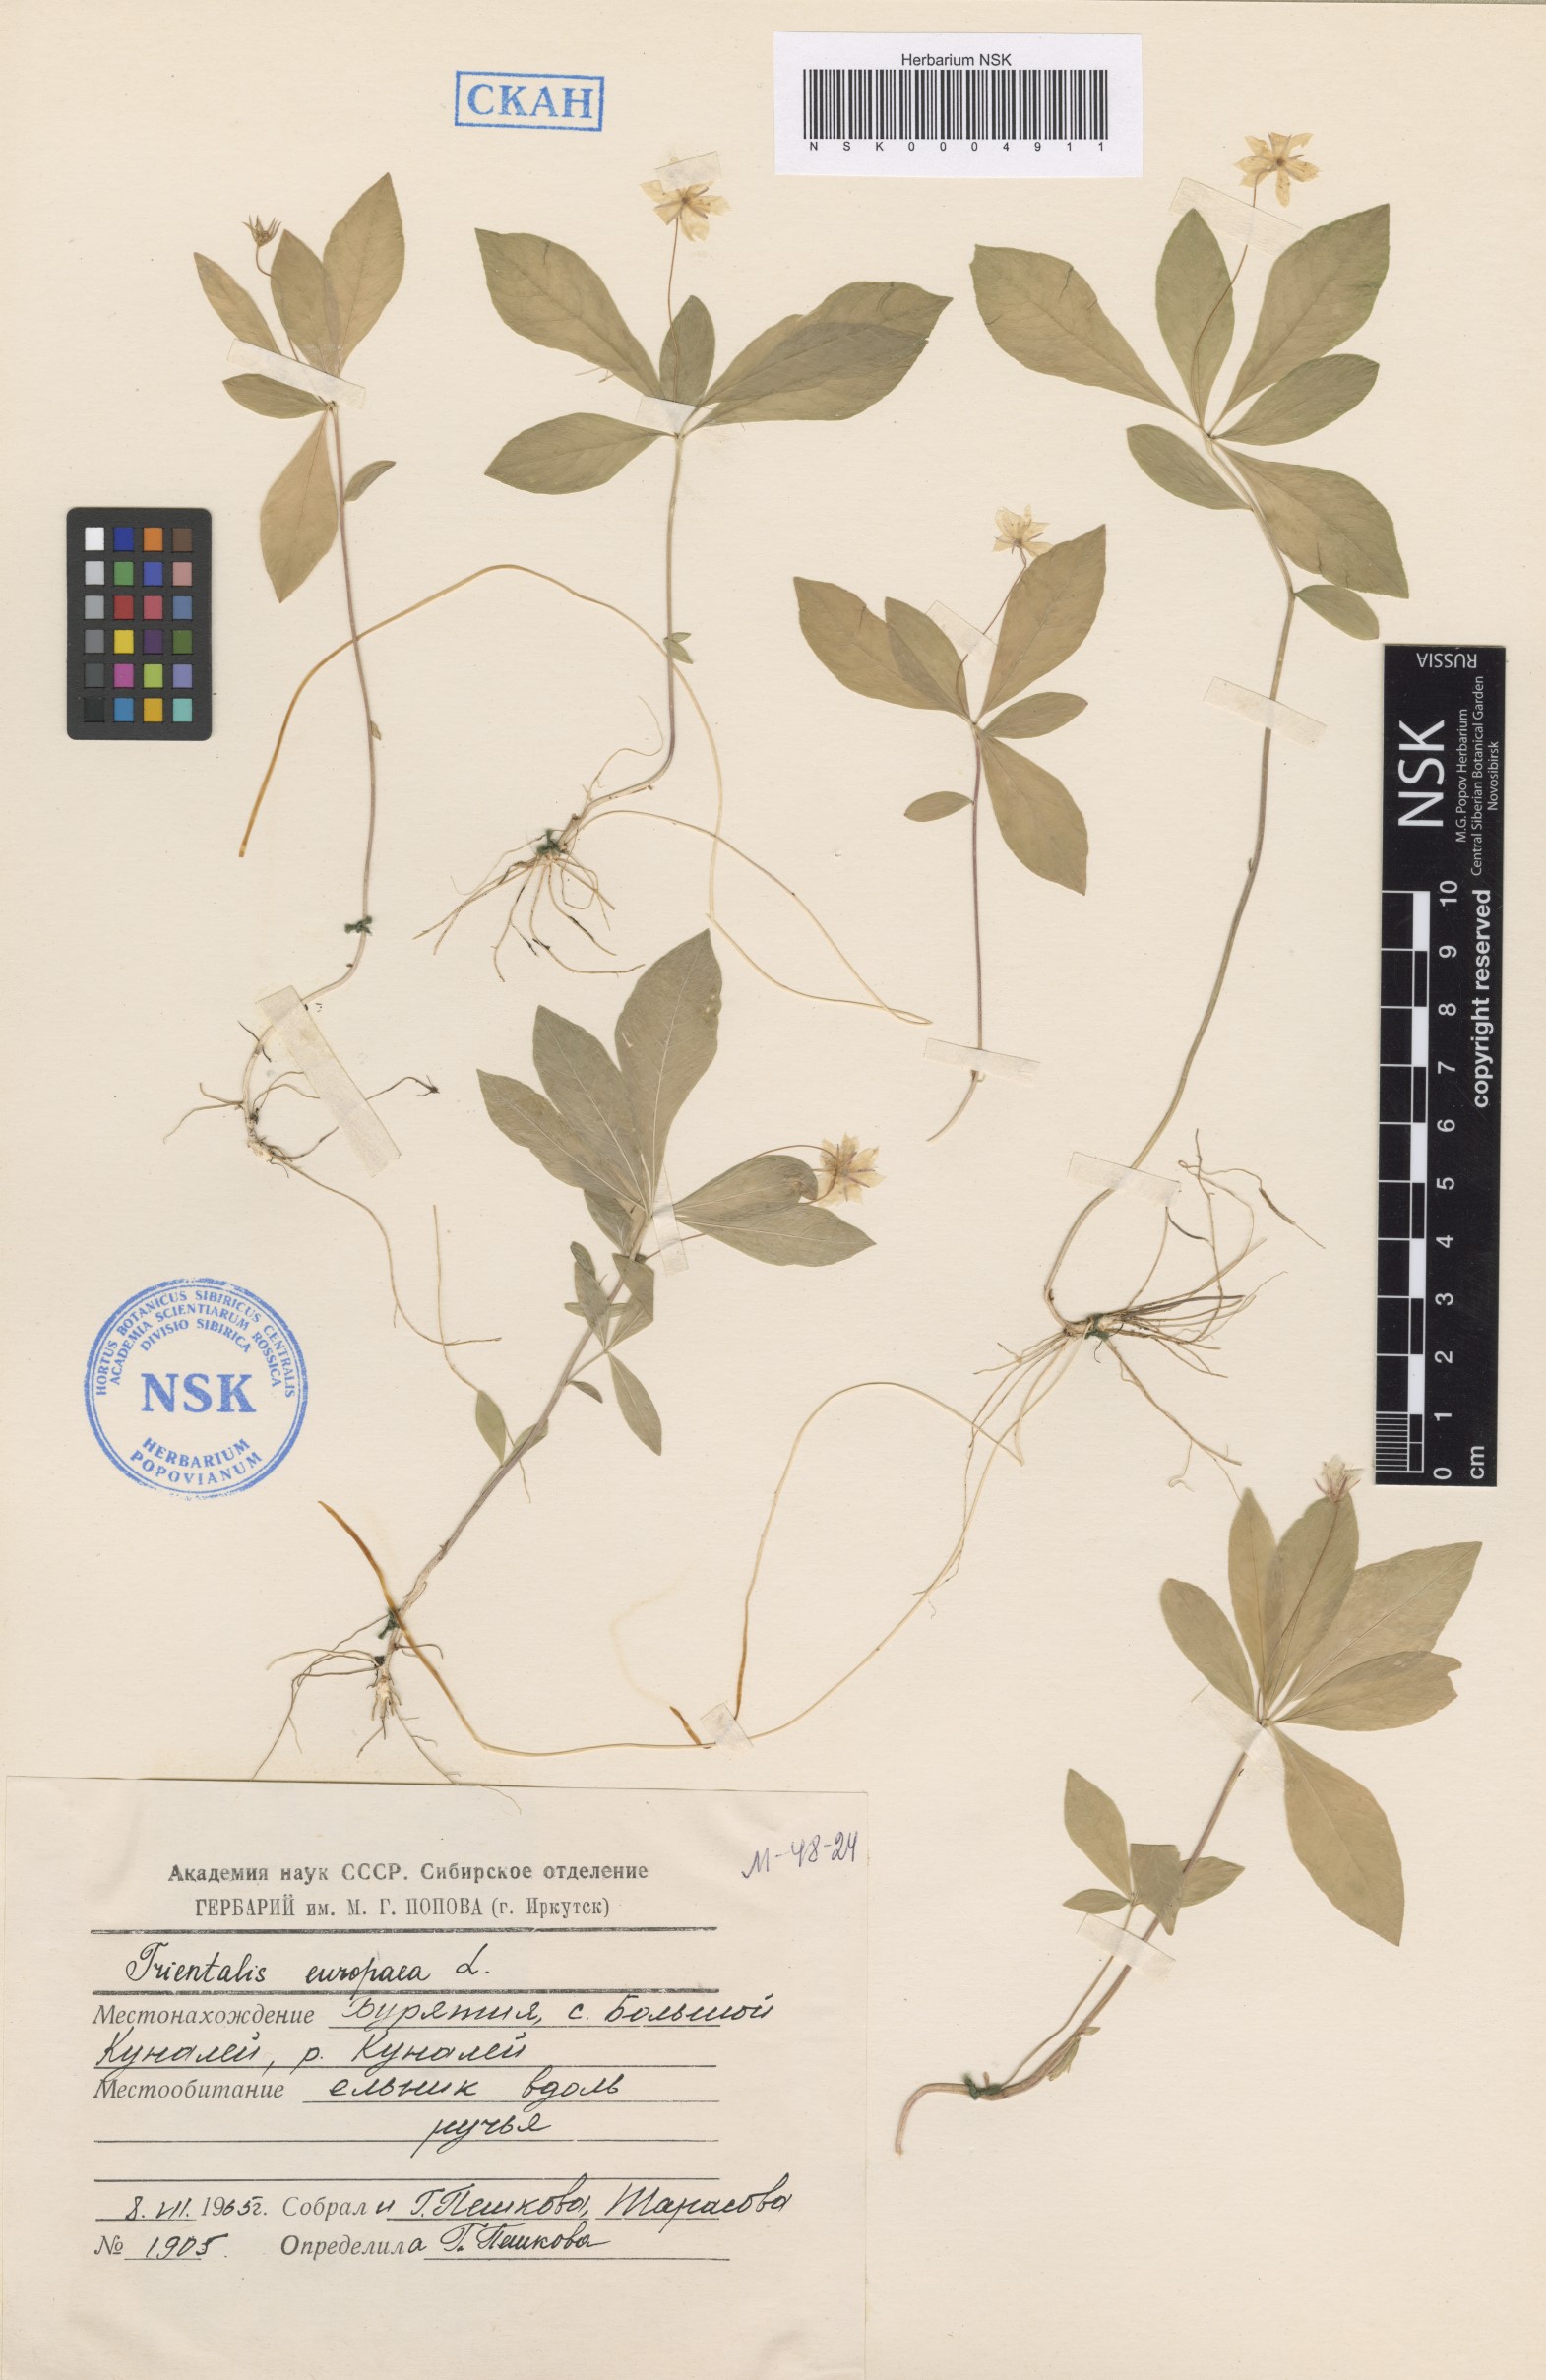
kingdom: Plantae
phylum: Tracheophyta
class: Magnoliopsida
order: Ericales
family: Primulaceae
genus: Lysimachia
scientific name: Lysimachia europaea
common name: Arctic starflower
